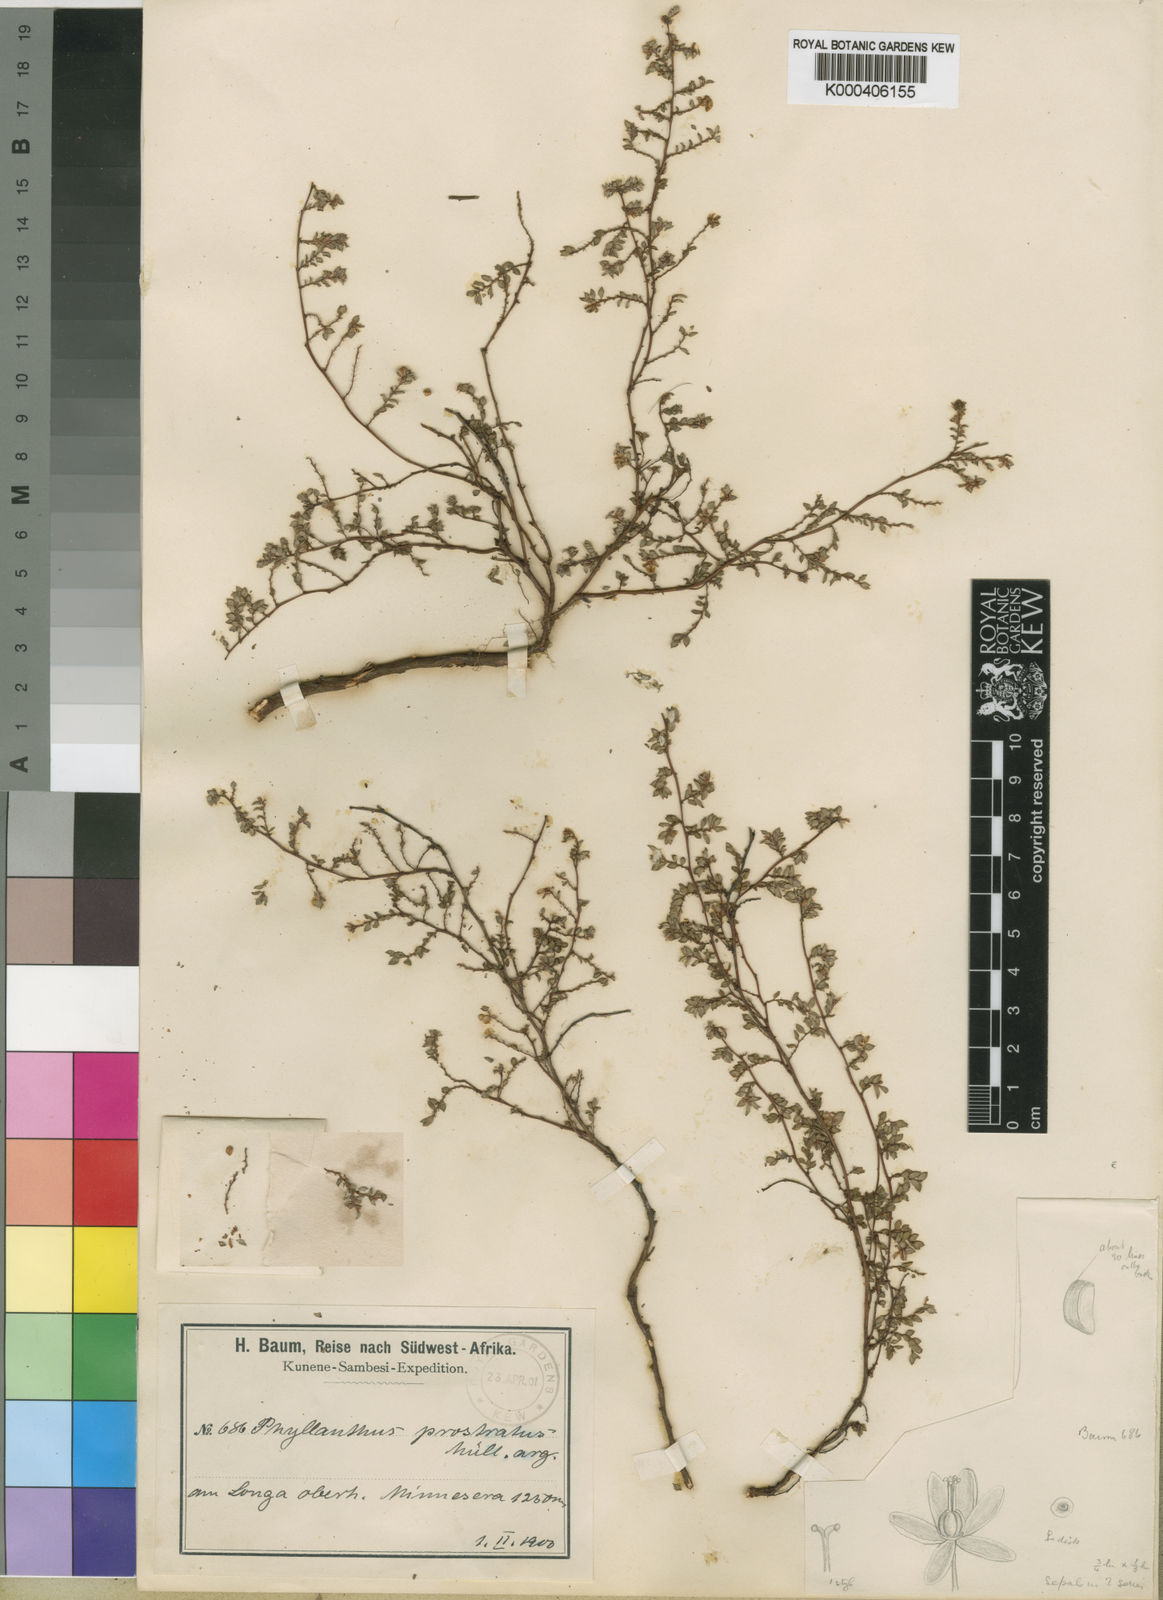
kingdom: Plantae
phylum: Tracheophyta
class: Magnoliopsida
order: Malpighiales
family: Phyllanthaceae
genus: Phyllanthus
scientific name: Phyllanthus
